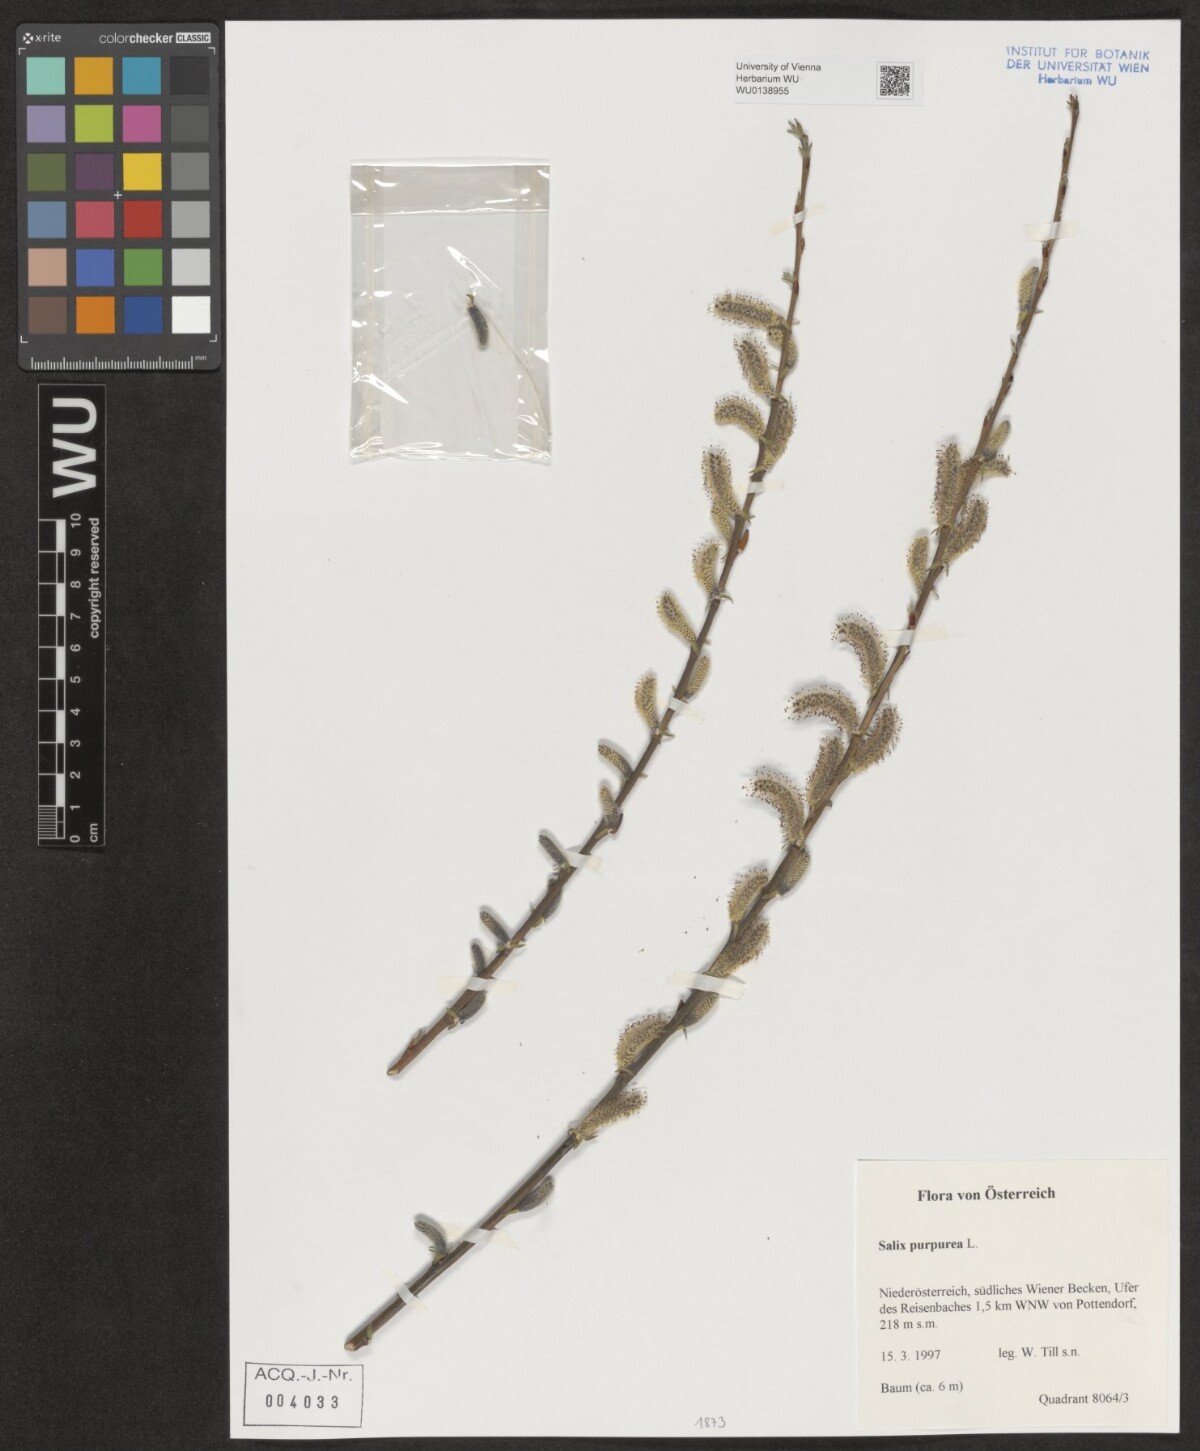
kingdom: Plantae
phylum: Tracheophyta
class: Magnoliopsida
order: Malpighiales
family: Salicaceae
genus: Salix
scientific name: Salix purpurea
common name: Purple willow
